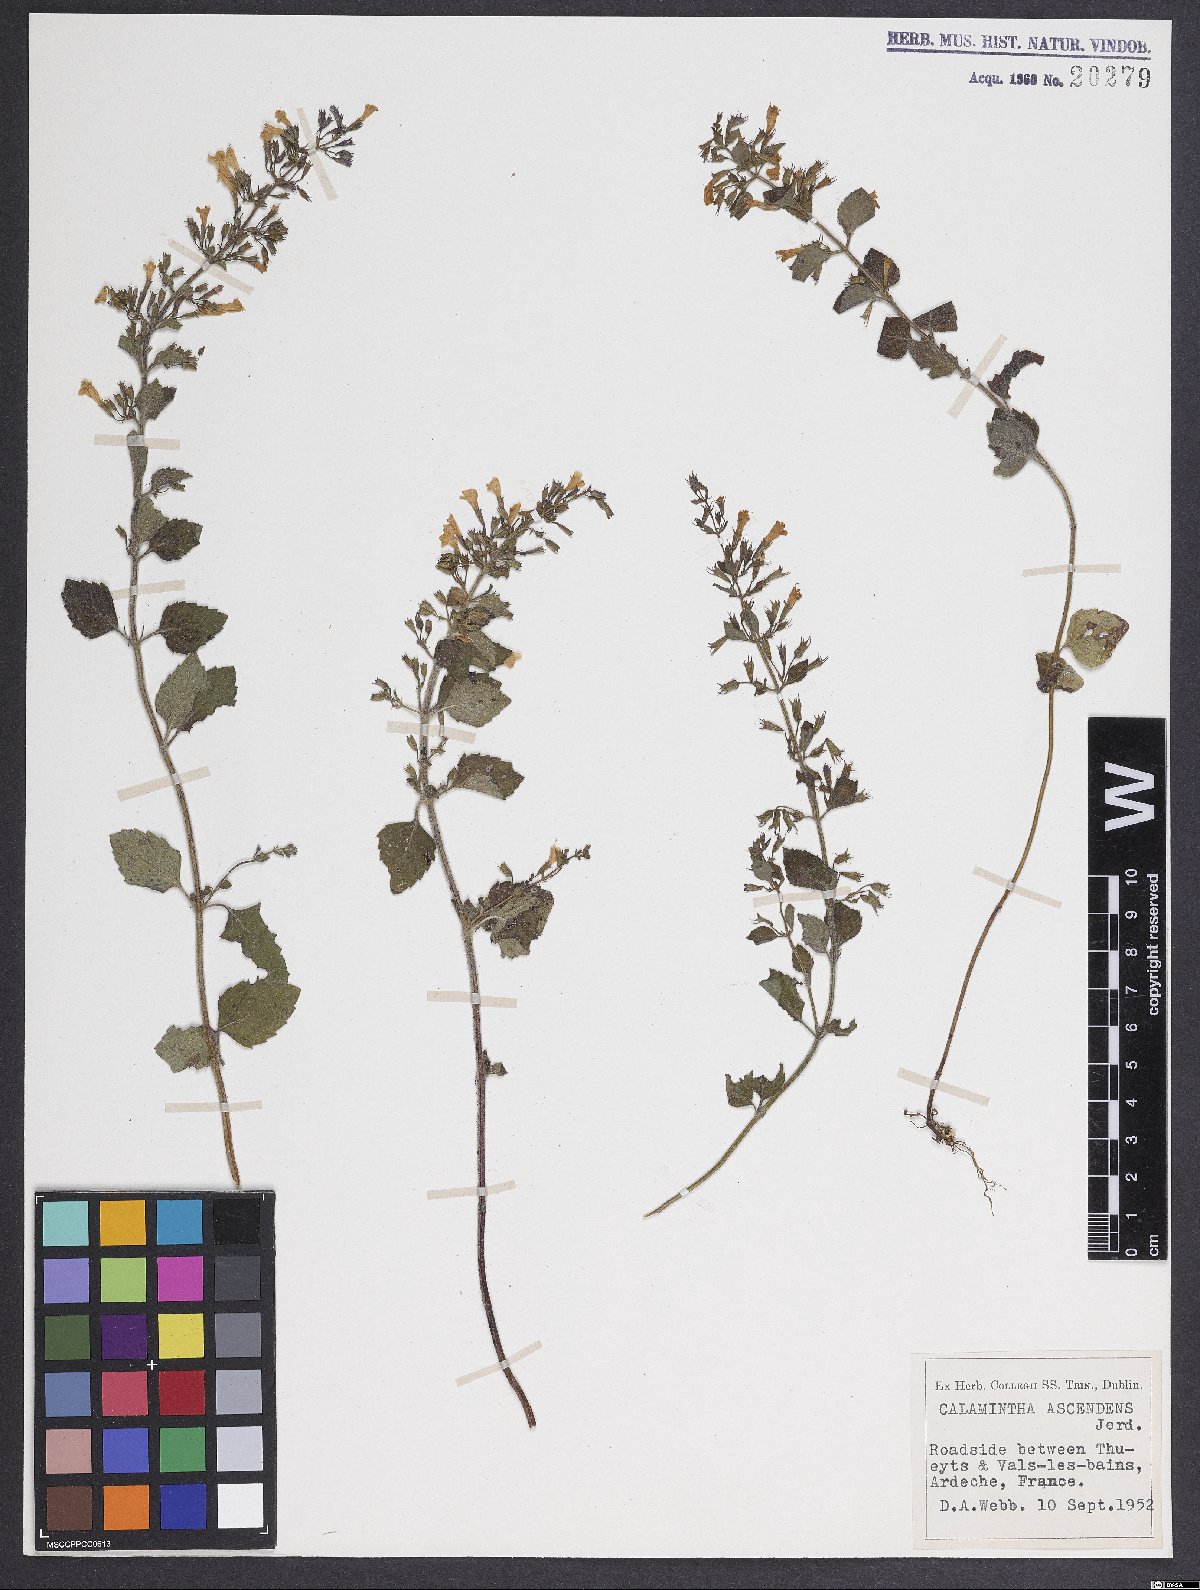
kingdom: Plantae
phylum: Tracheophyta
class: Magnoliopsida
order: Lamiales
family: Lamiaceae
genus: Clinopodium
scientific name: Clinopodium menthifolium
